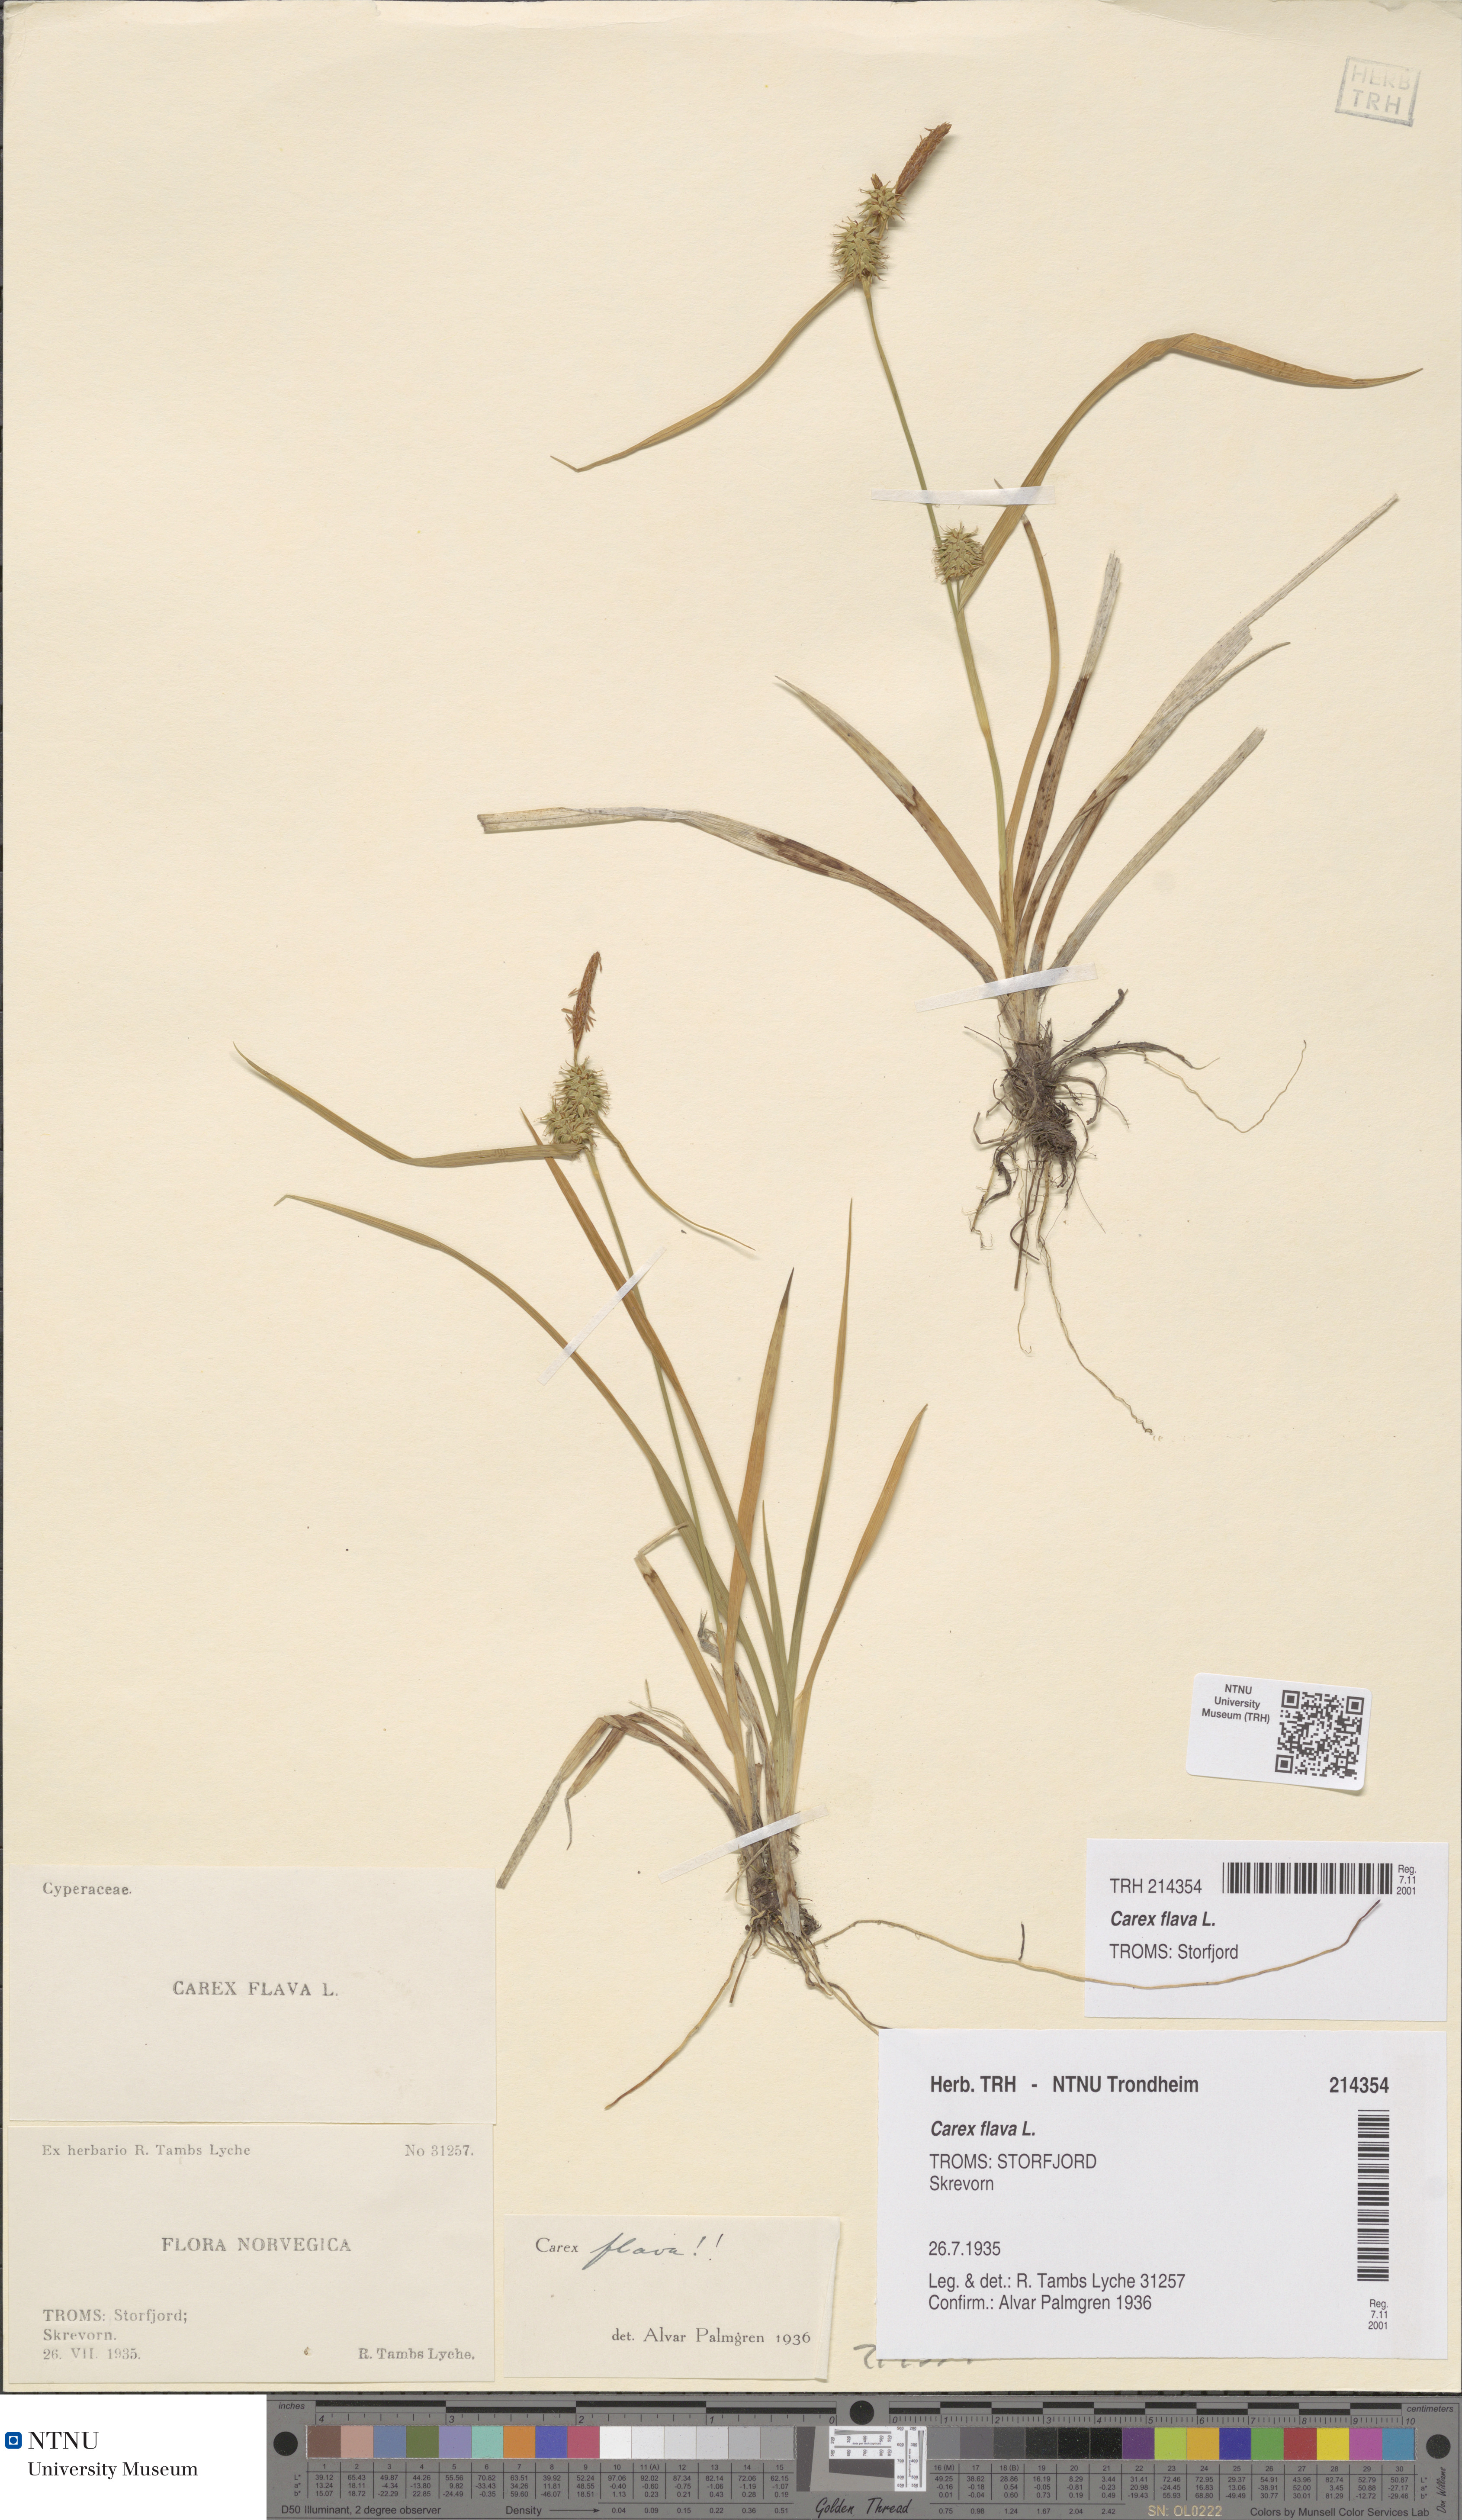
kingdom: Plantae
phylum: Tracheophyta
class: Liliopsida
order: Poales
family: Cyperaceae
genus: Carex
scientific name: Carex flava
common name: Large yellow-sedge
